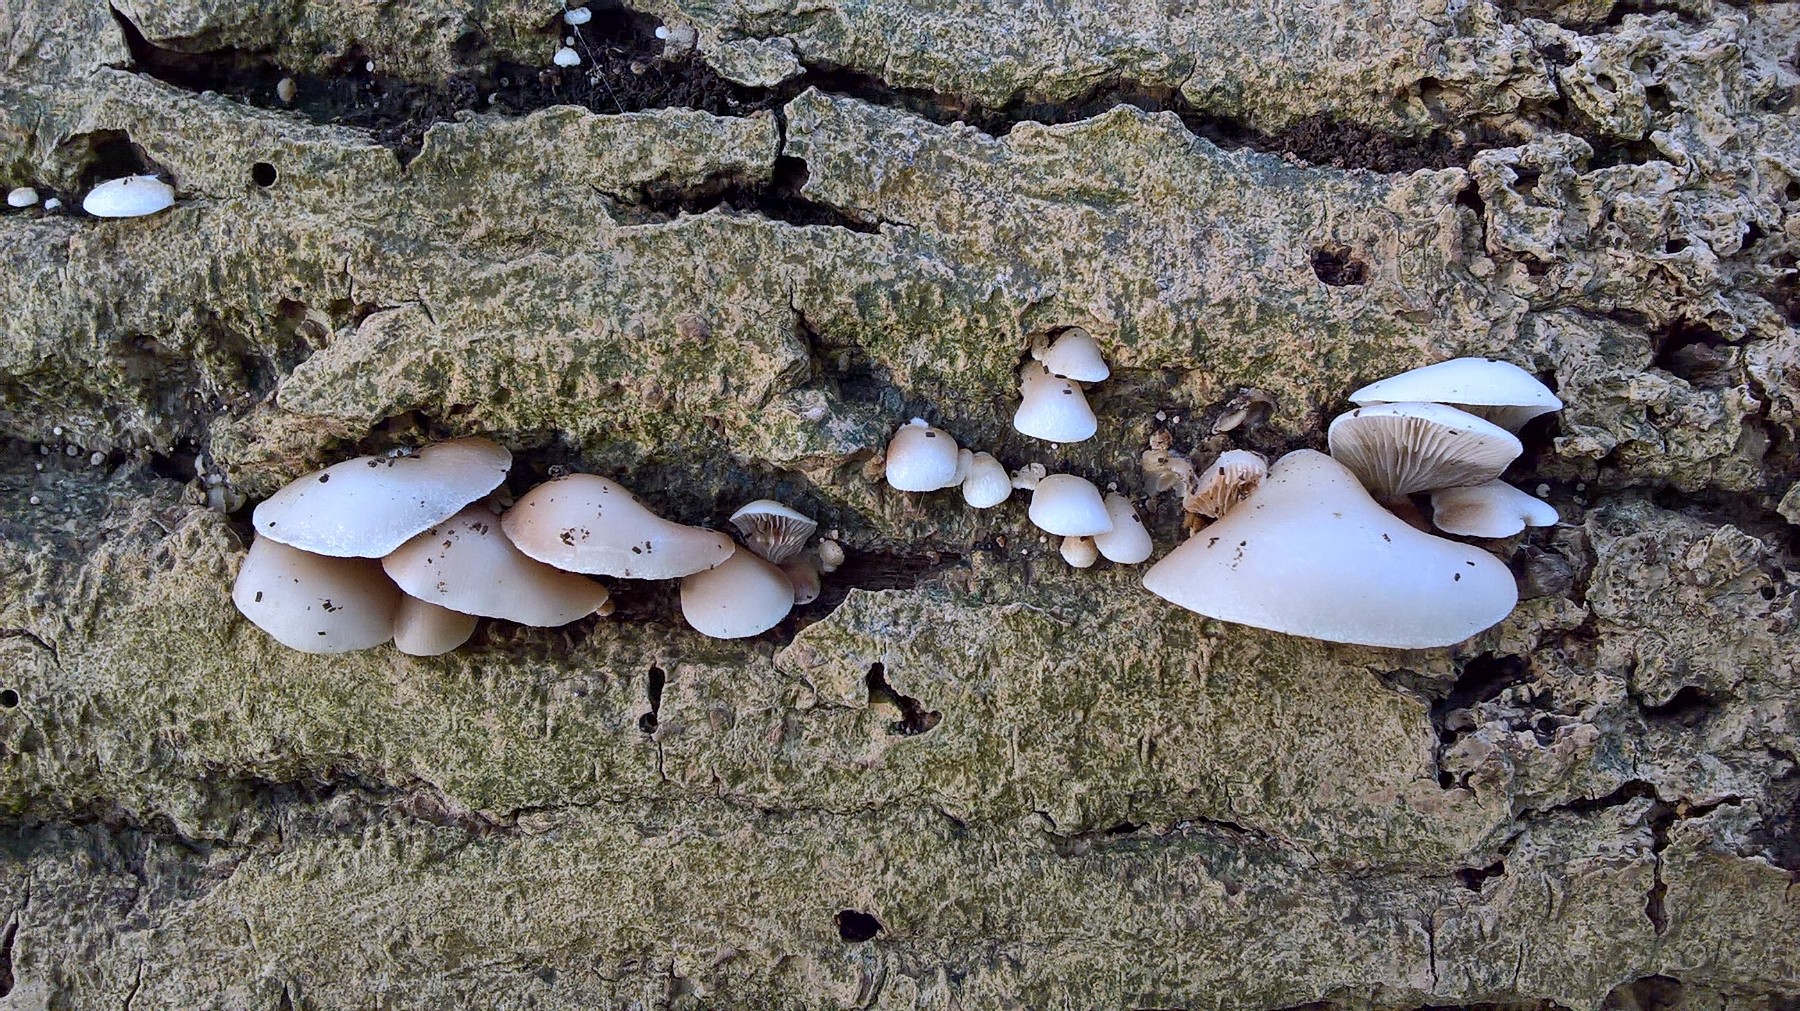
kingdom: Fungi
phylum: Basidiomycota
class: Agaricomycetes
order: Agaricales
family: Crepidotaceae
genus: Crepidotus
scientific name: Crepidotus mollis
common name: blød muslingesvamp
